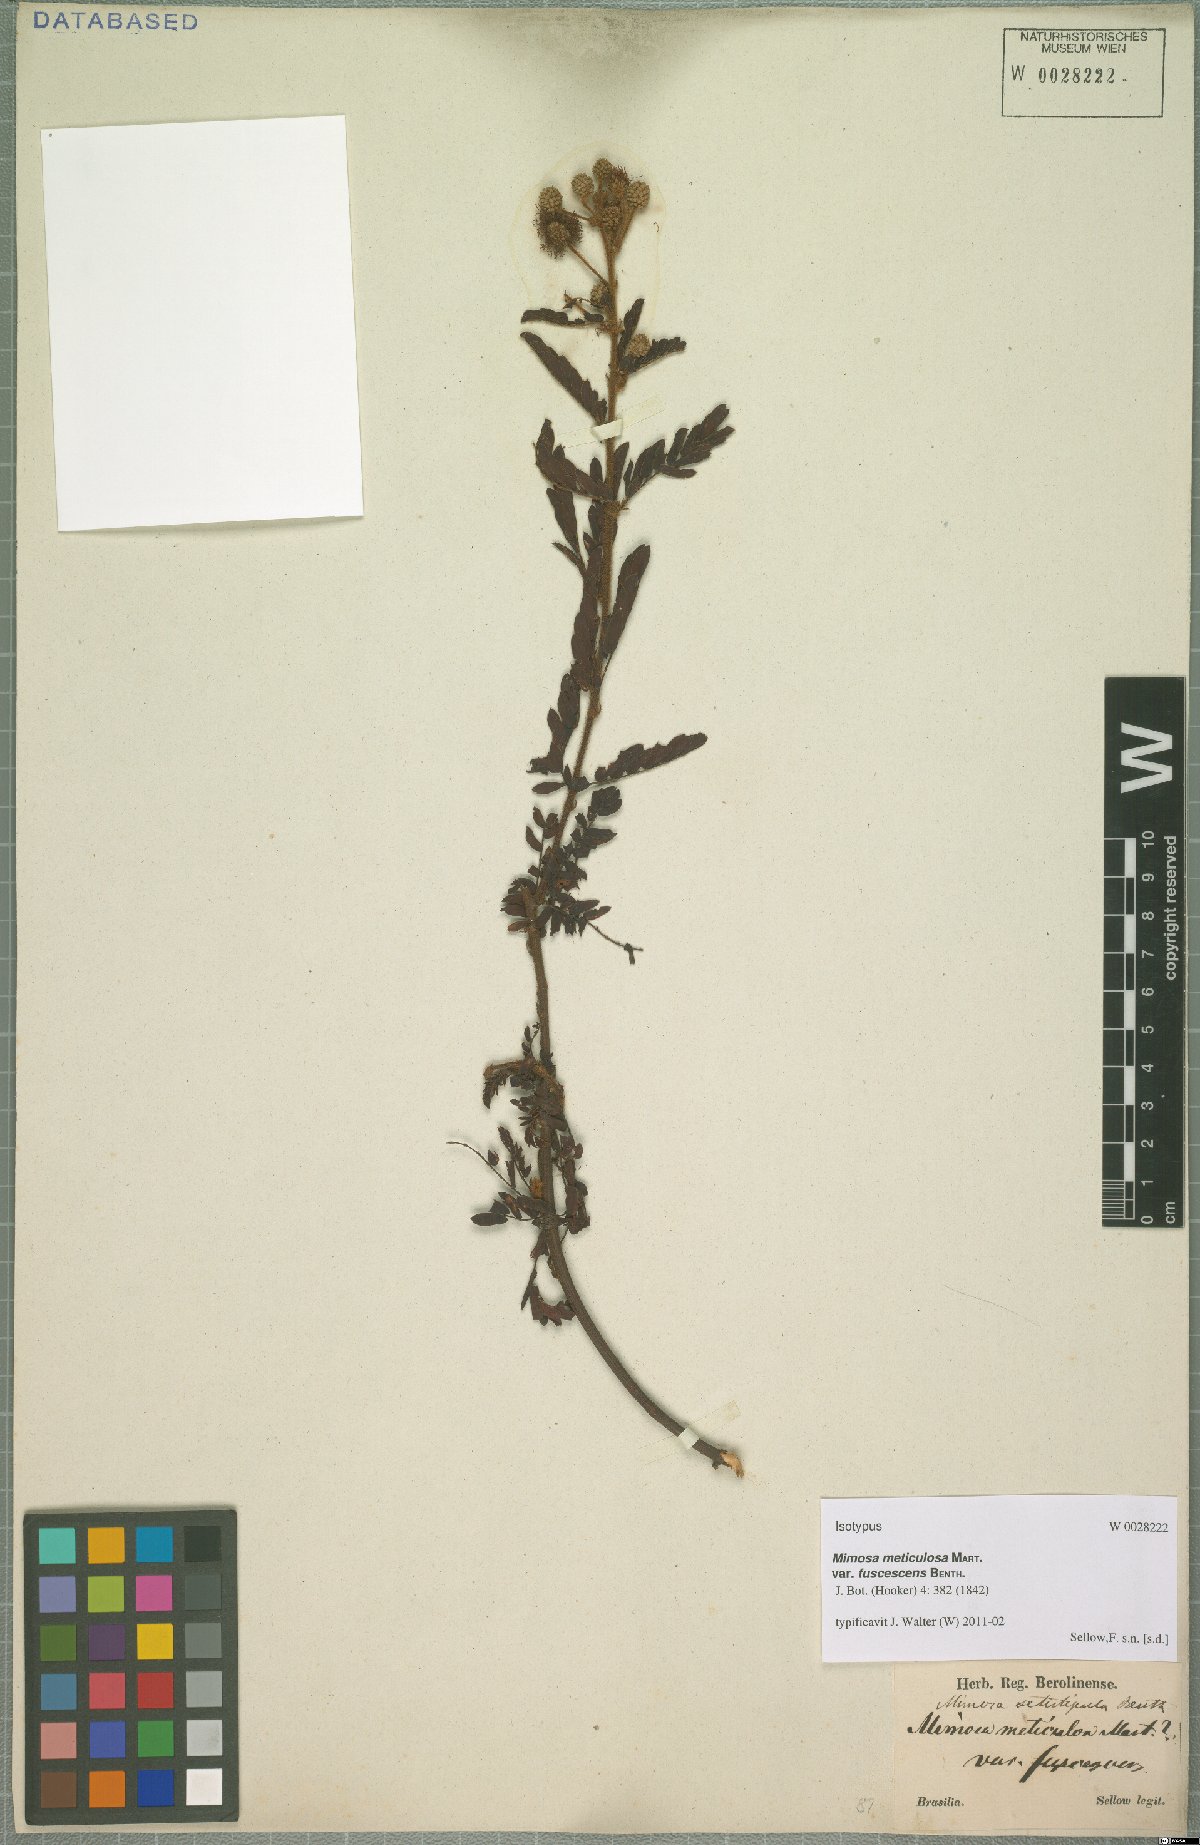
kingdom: Plantae
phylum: Tracheophyta
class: Magnoliopsida
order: Fabales
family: Fabaceae
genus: Mimosa
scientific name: Mimosa setistipula
